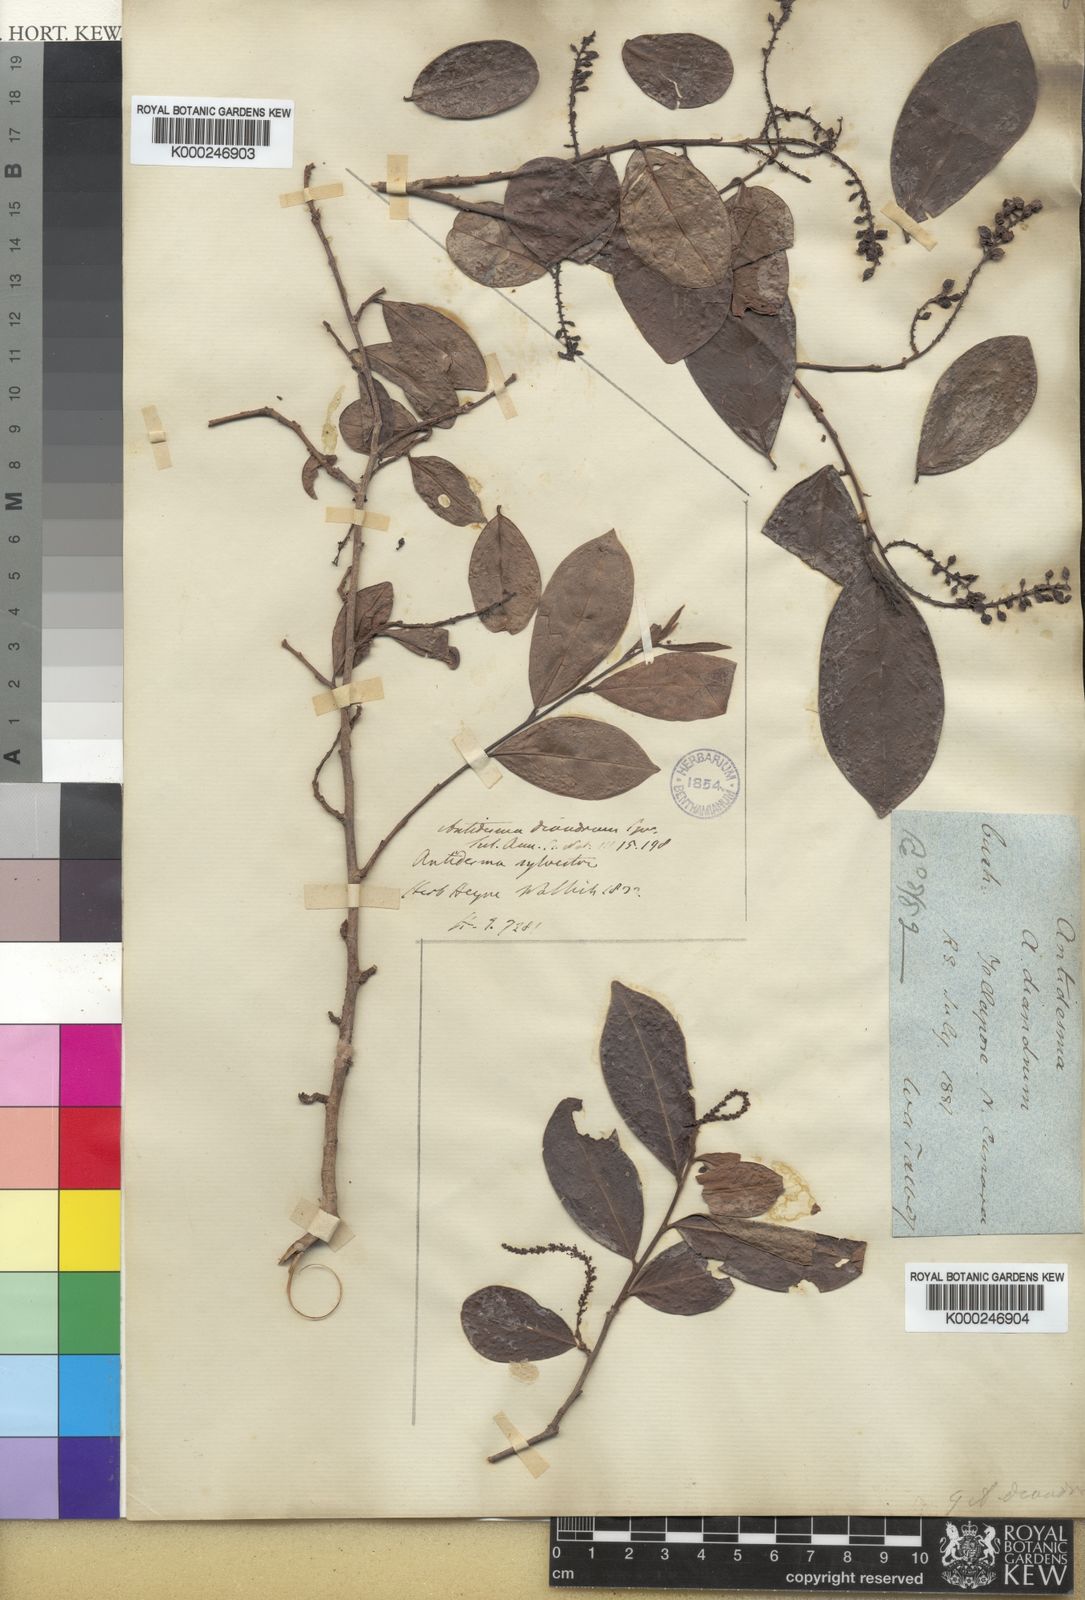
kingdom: Plantae
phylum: Tracheophyta
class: Magnoliopsida
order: Malpighiales
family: Phyllanthaceae
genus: Antidesma
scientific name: Antidesma acidum
